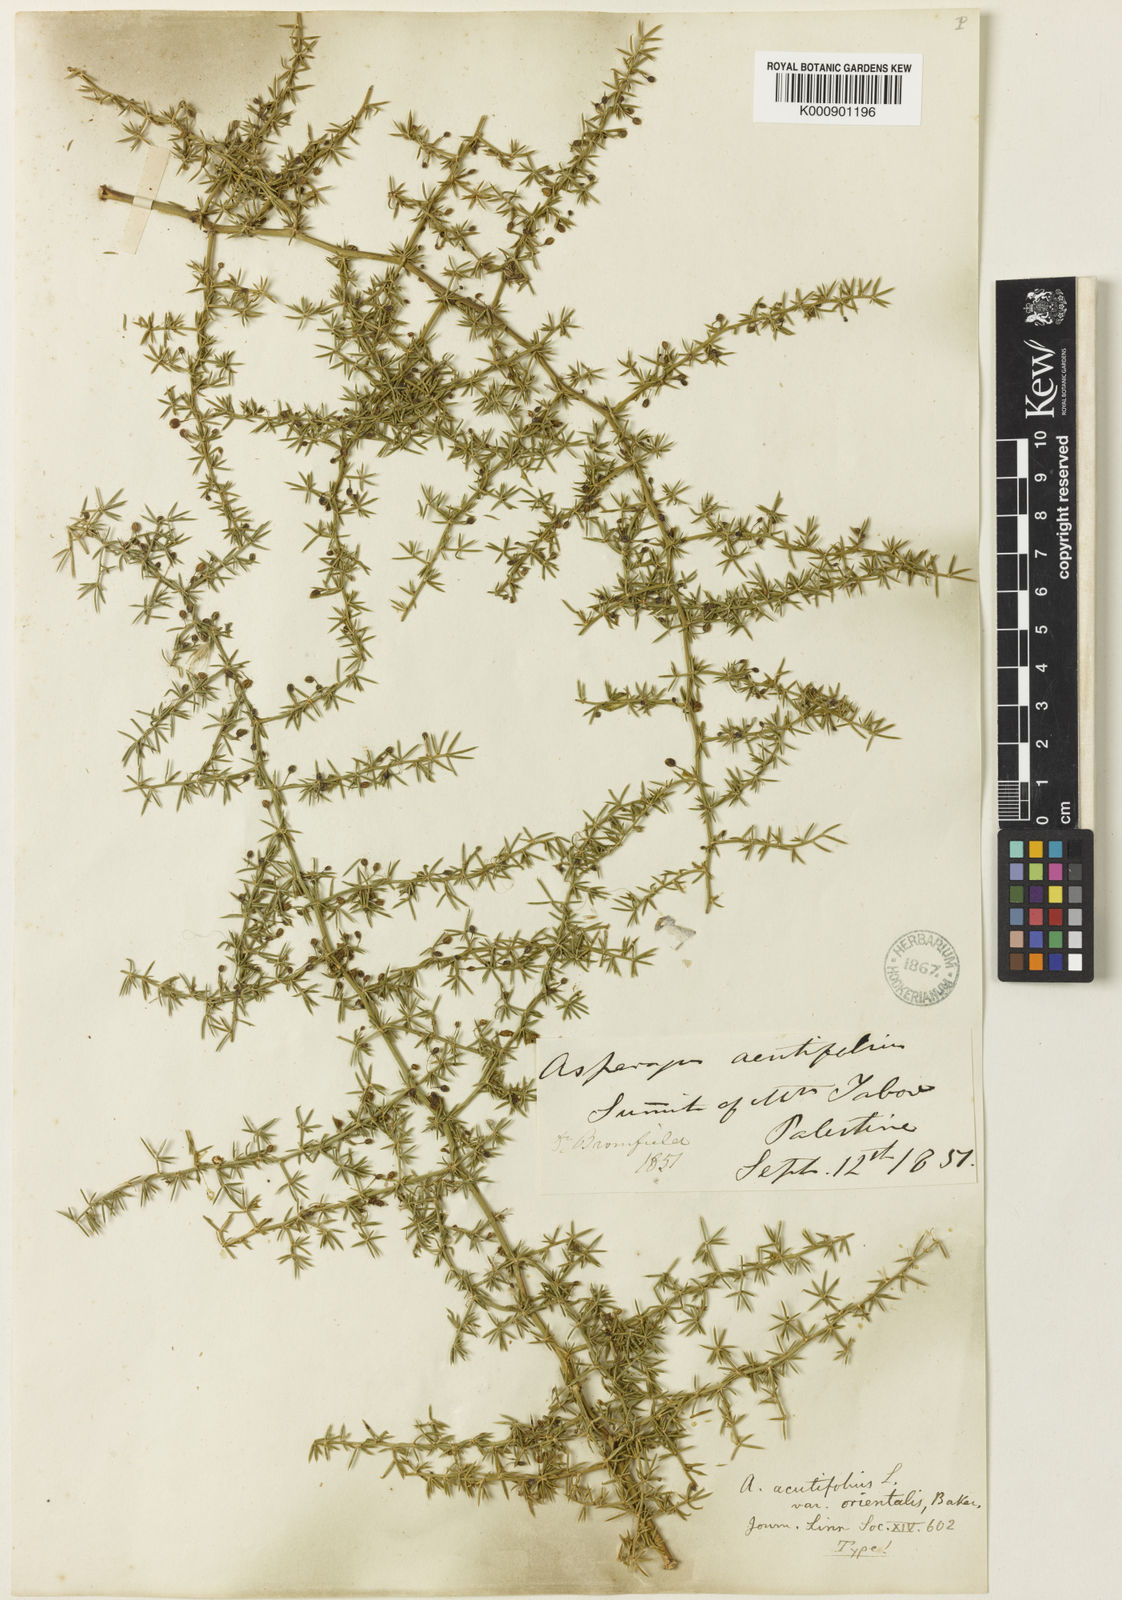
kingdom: Plantae
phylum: Tracheophyta
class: Liliopsida
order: Asparagales
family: Asparagaceae
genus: Asparagus
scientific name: Asparagus acutifolius
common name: Wild asparagus
